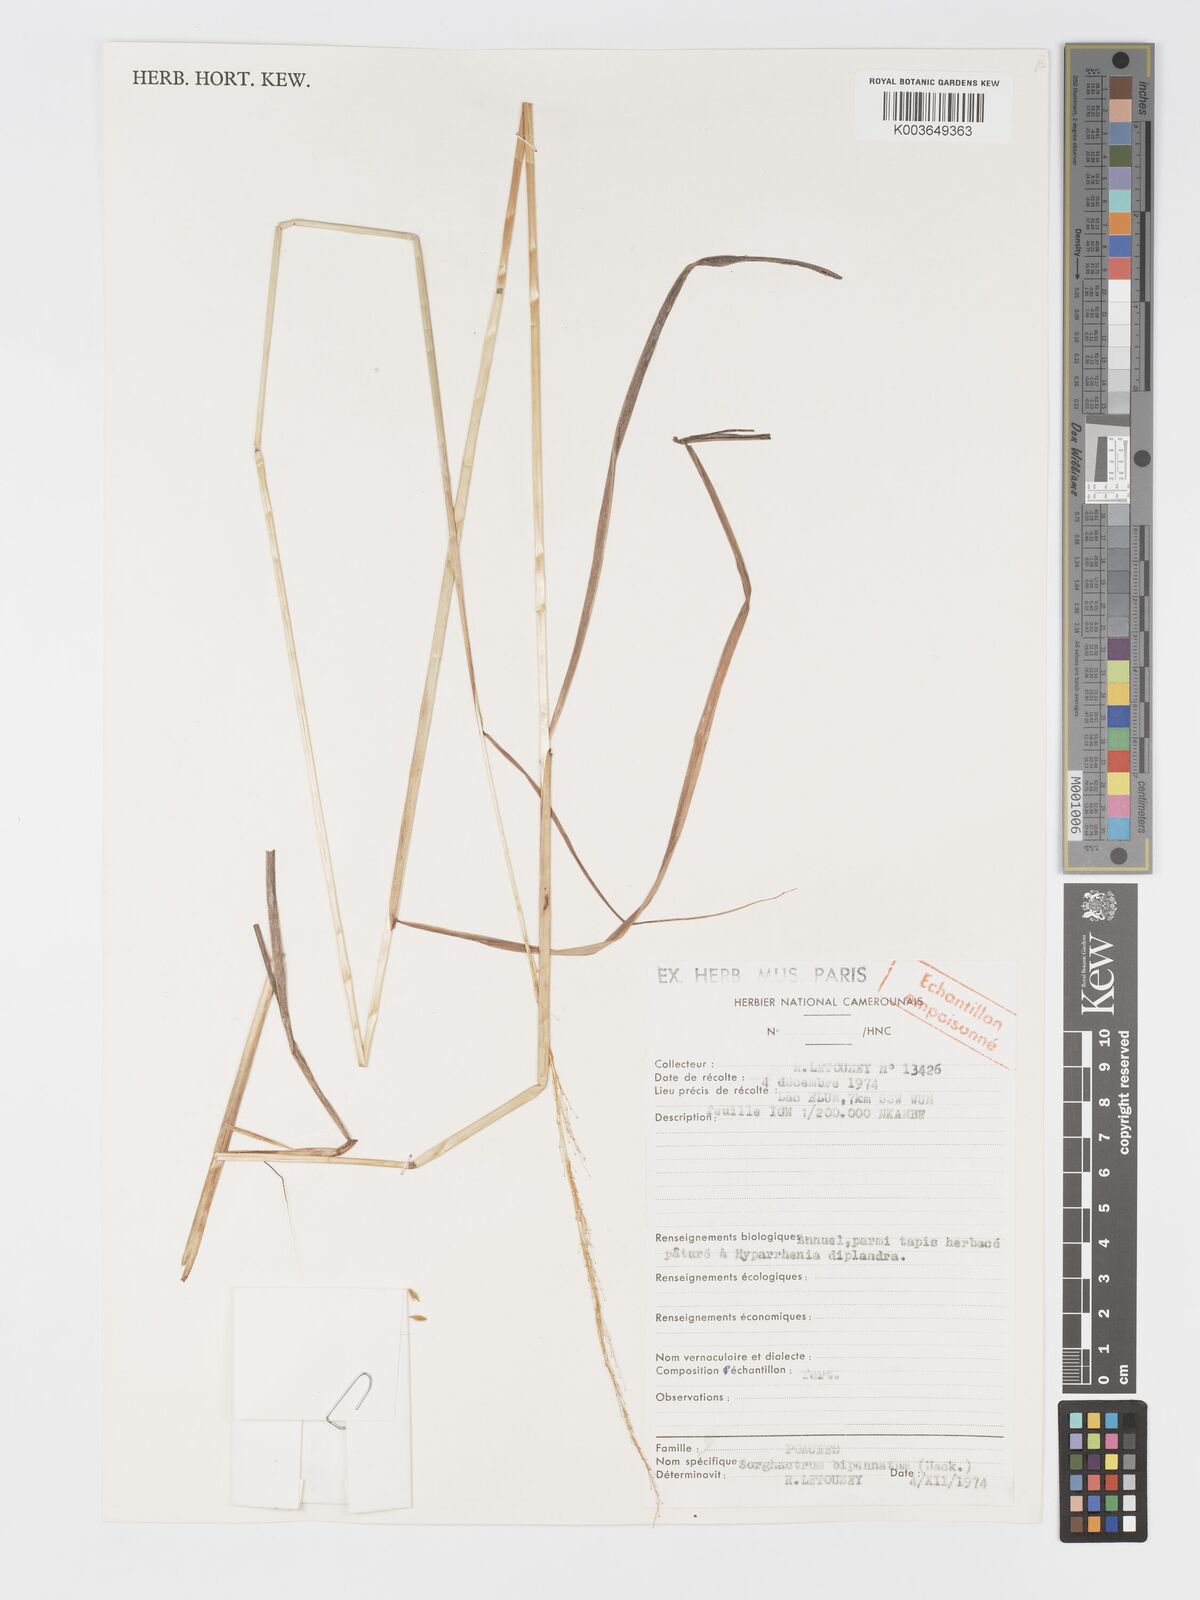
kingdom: Plantae
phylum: Tracheophyta
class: Liliopsida
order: Poales
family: Poaceae
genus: Sorghastrum
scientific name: Sorghastrum incompletum
